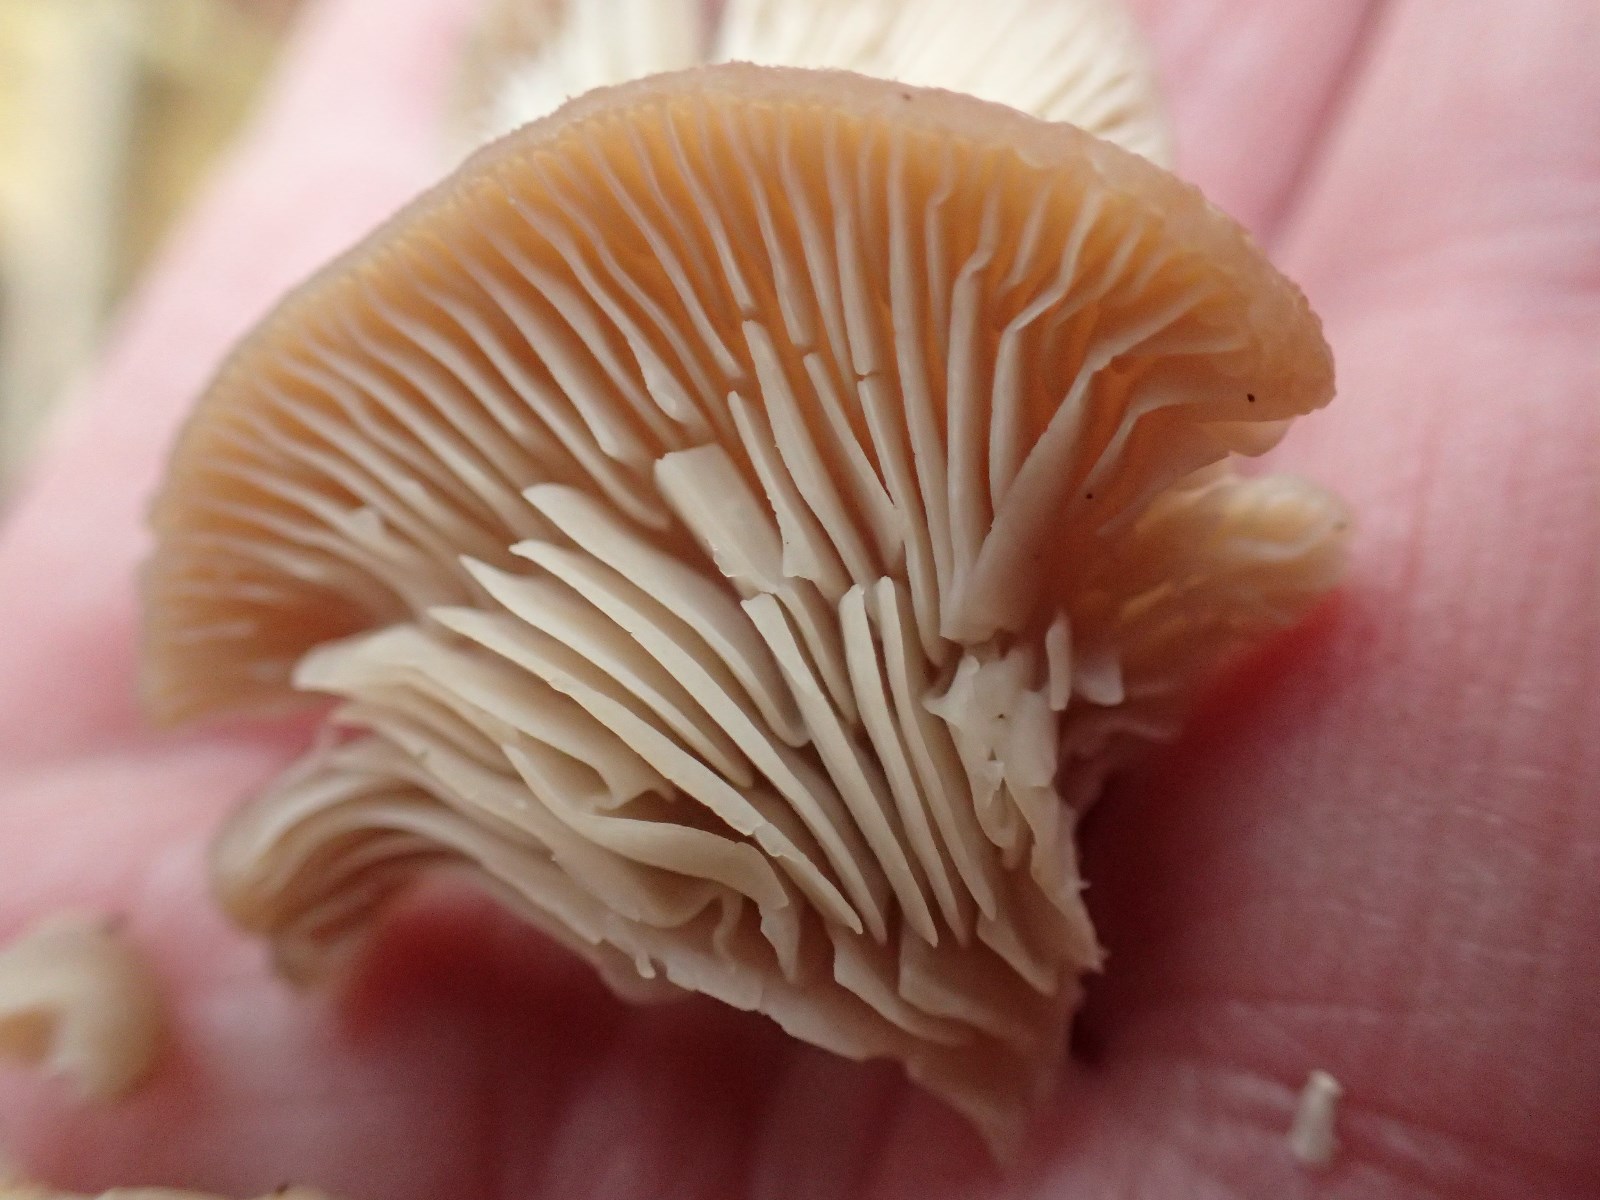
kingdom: Fungi
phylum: Basidiomycota
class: Agaricomycetes
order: Agaricales
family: Pleurotaceae
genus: Pleurotus
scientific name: Pleurotus ostreatus
